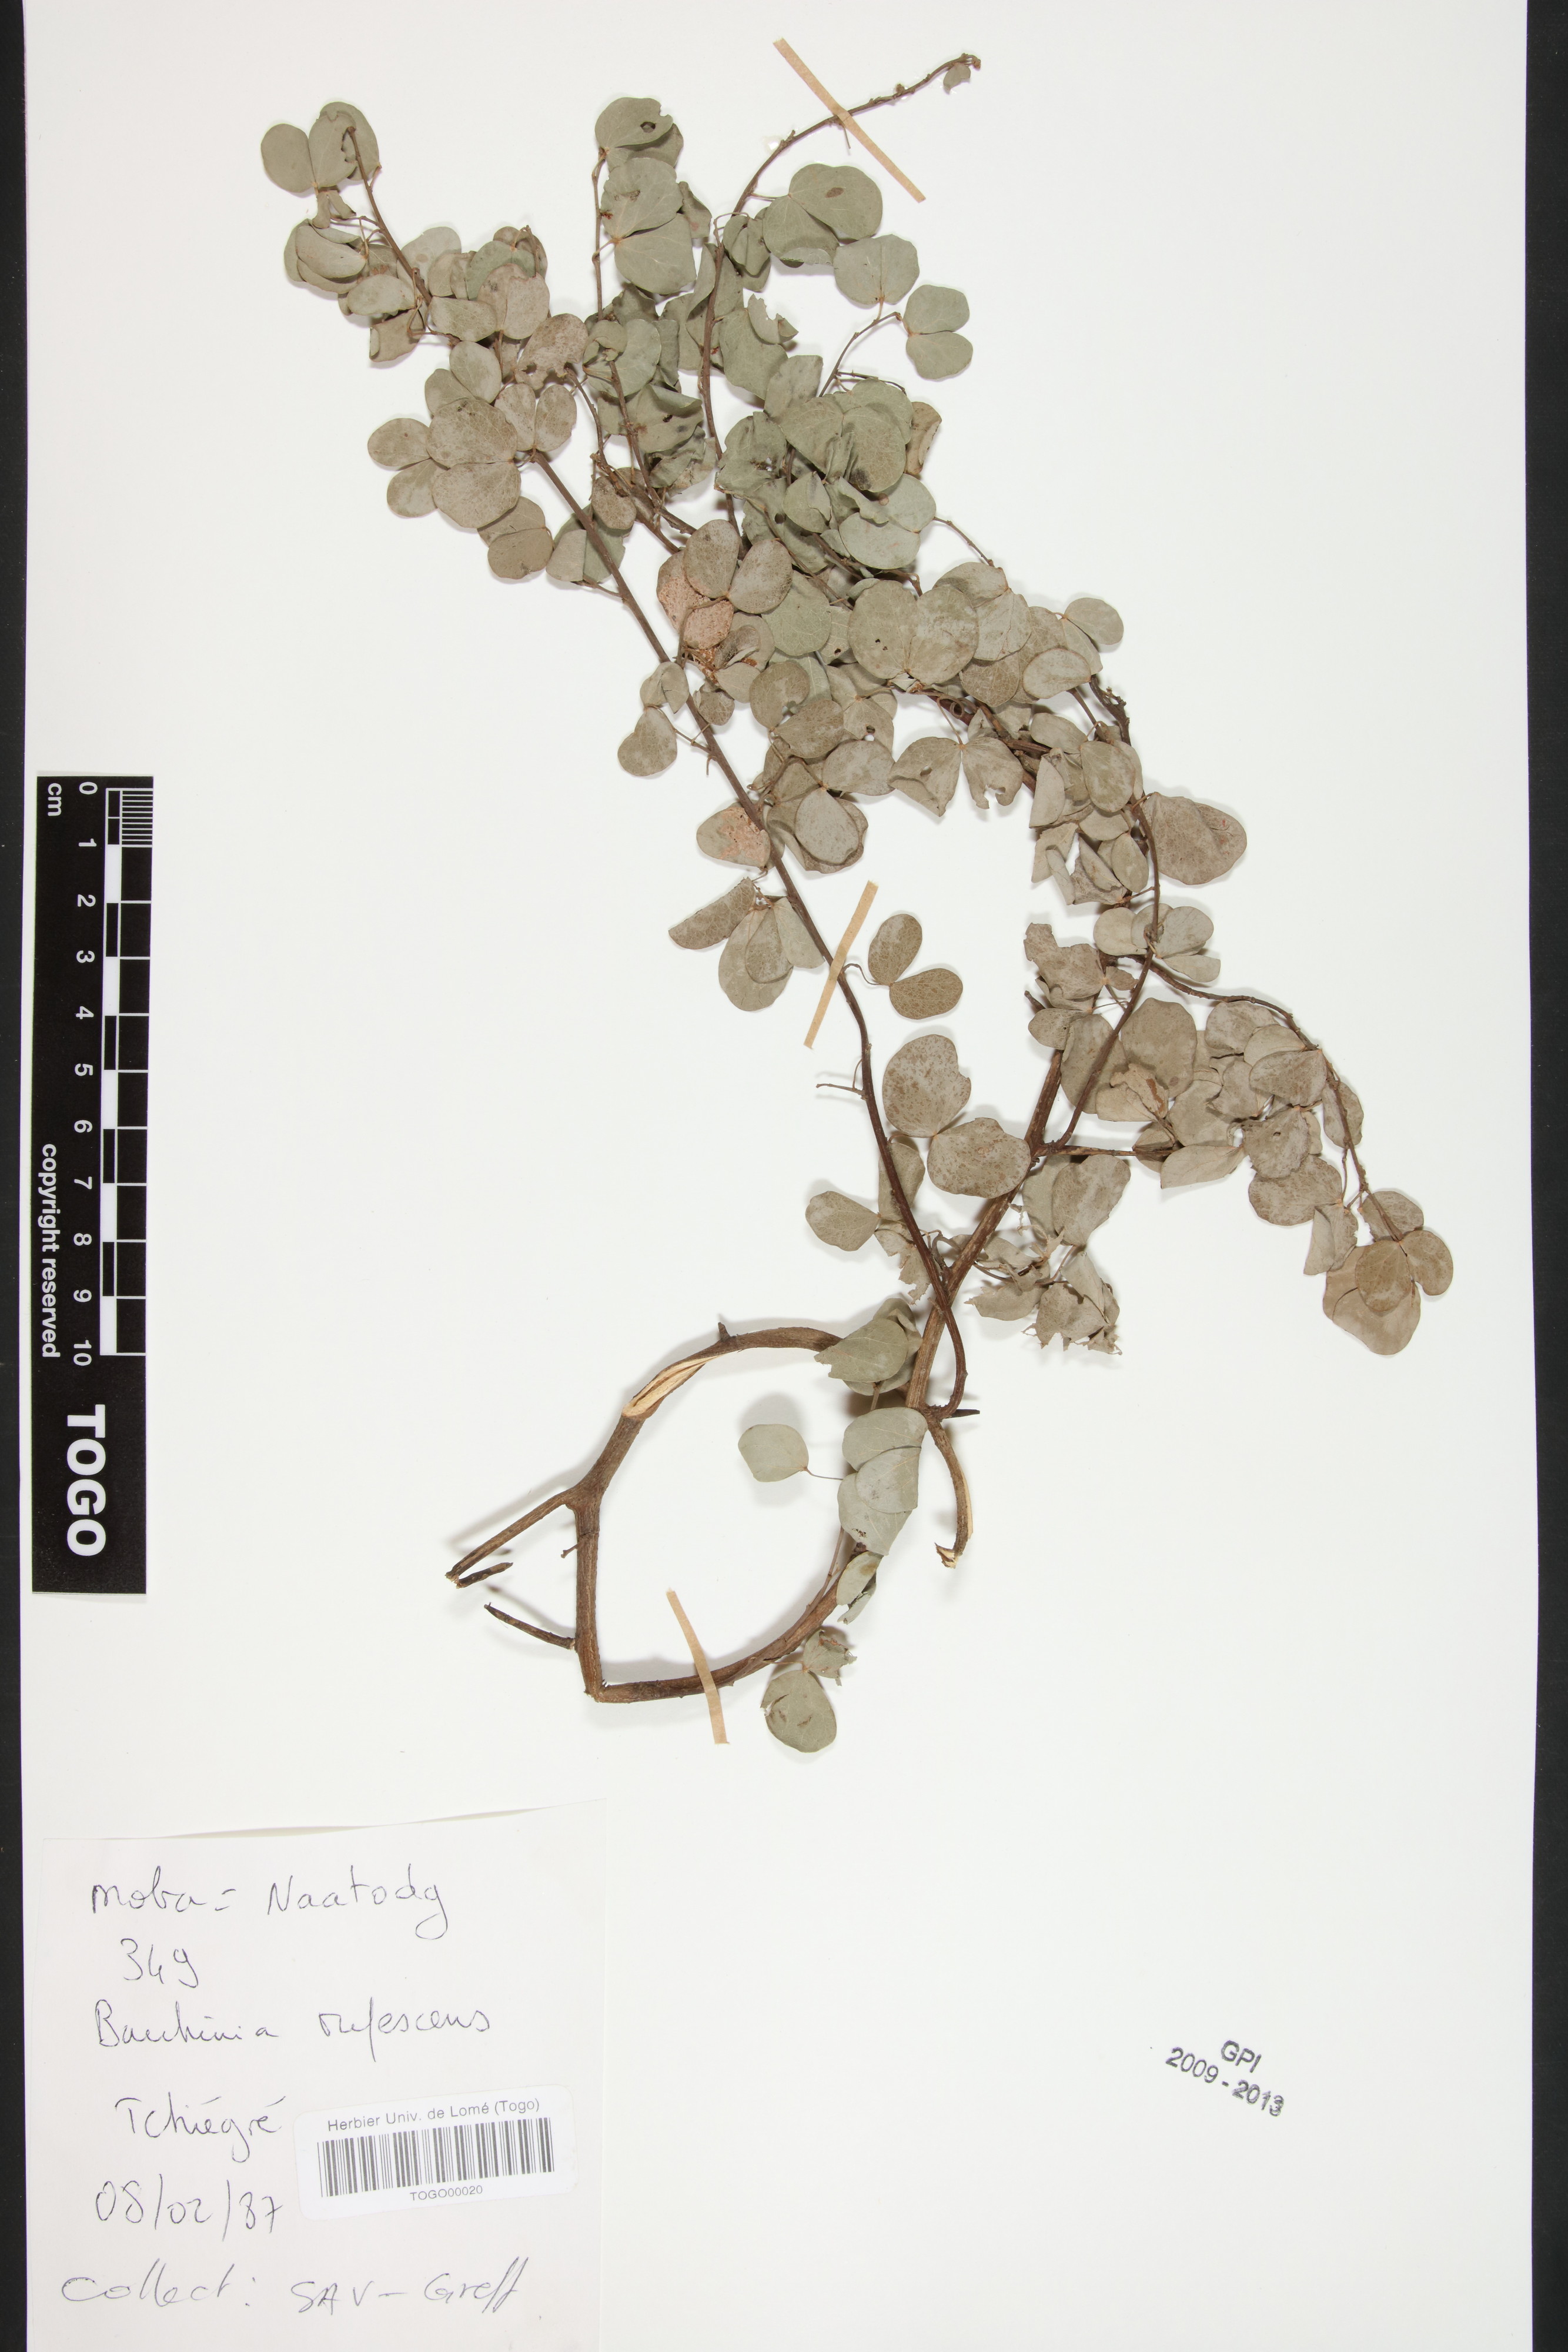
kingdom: Plantae
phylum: Tracheophyta
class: Magnoliopsida
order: Fabales
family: Fabaceae
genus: Bauhinia
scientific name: Bauhinia rufescens
